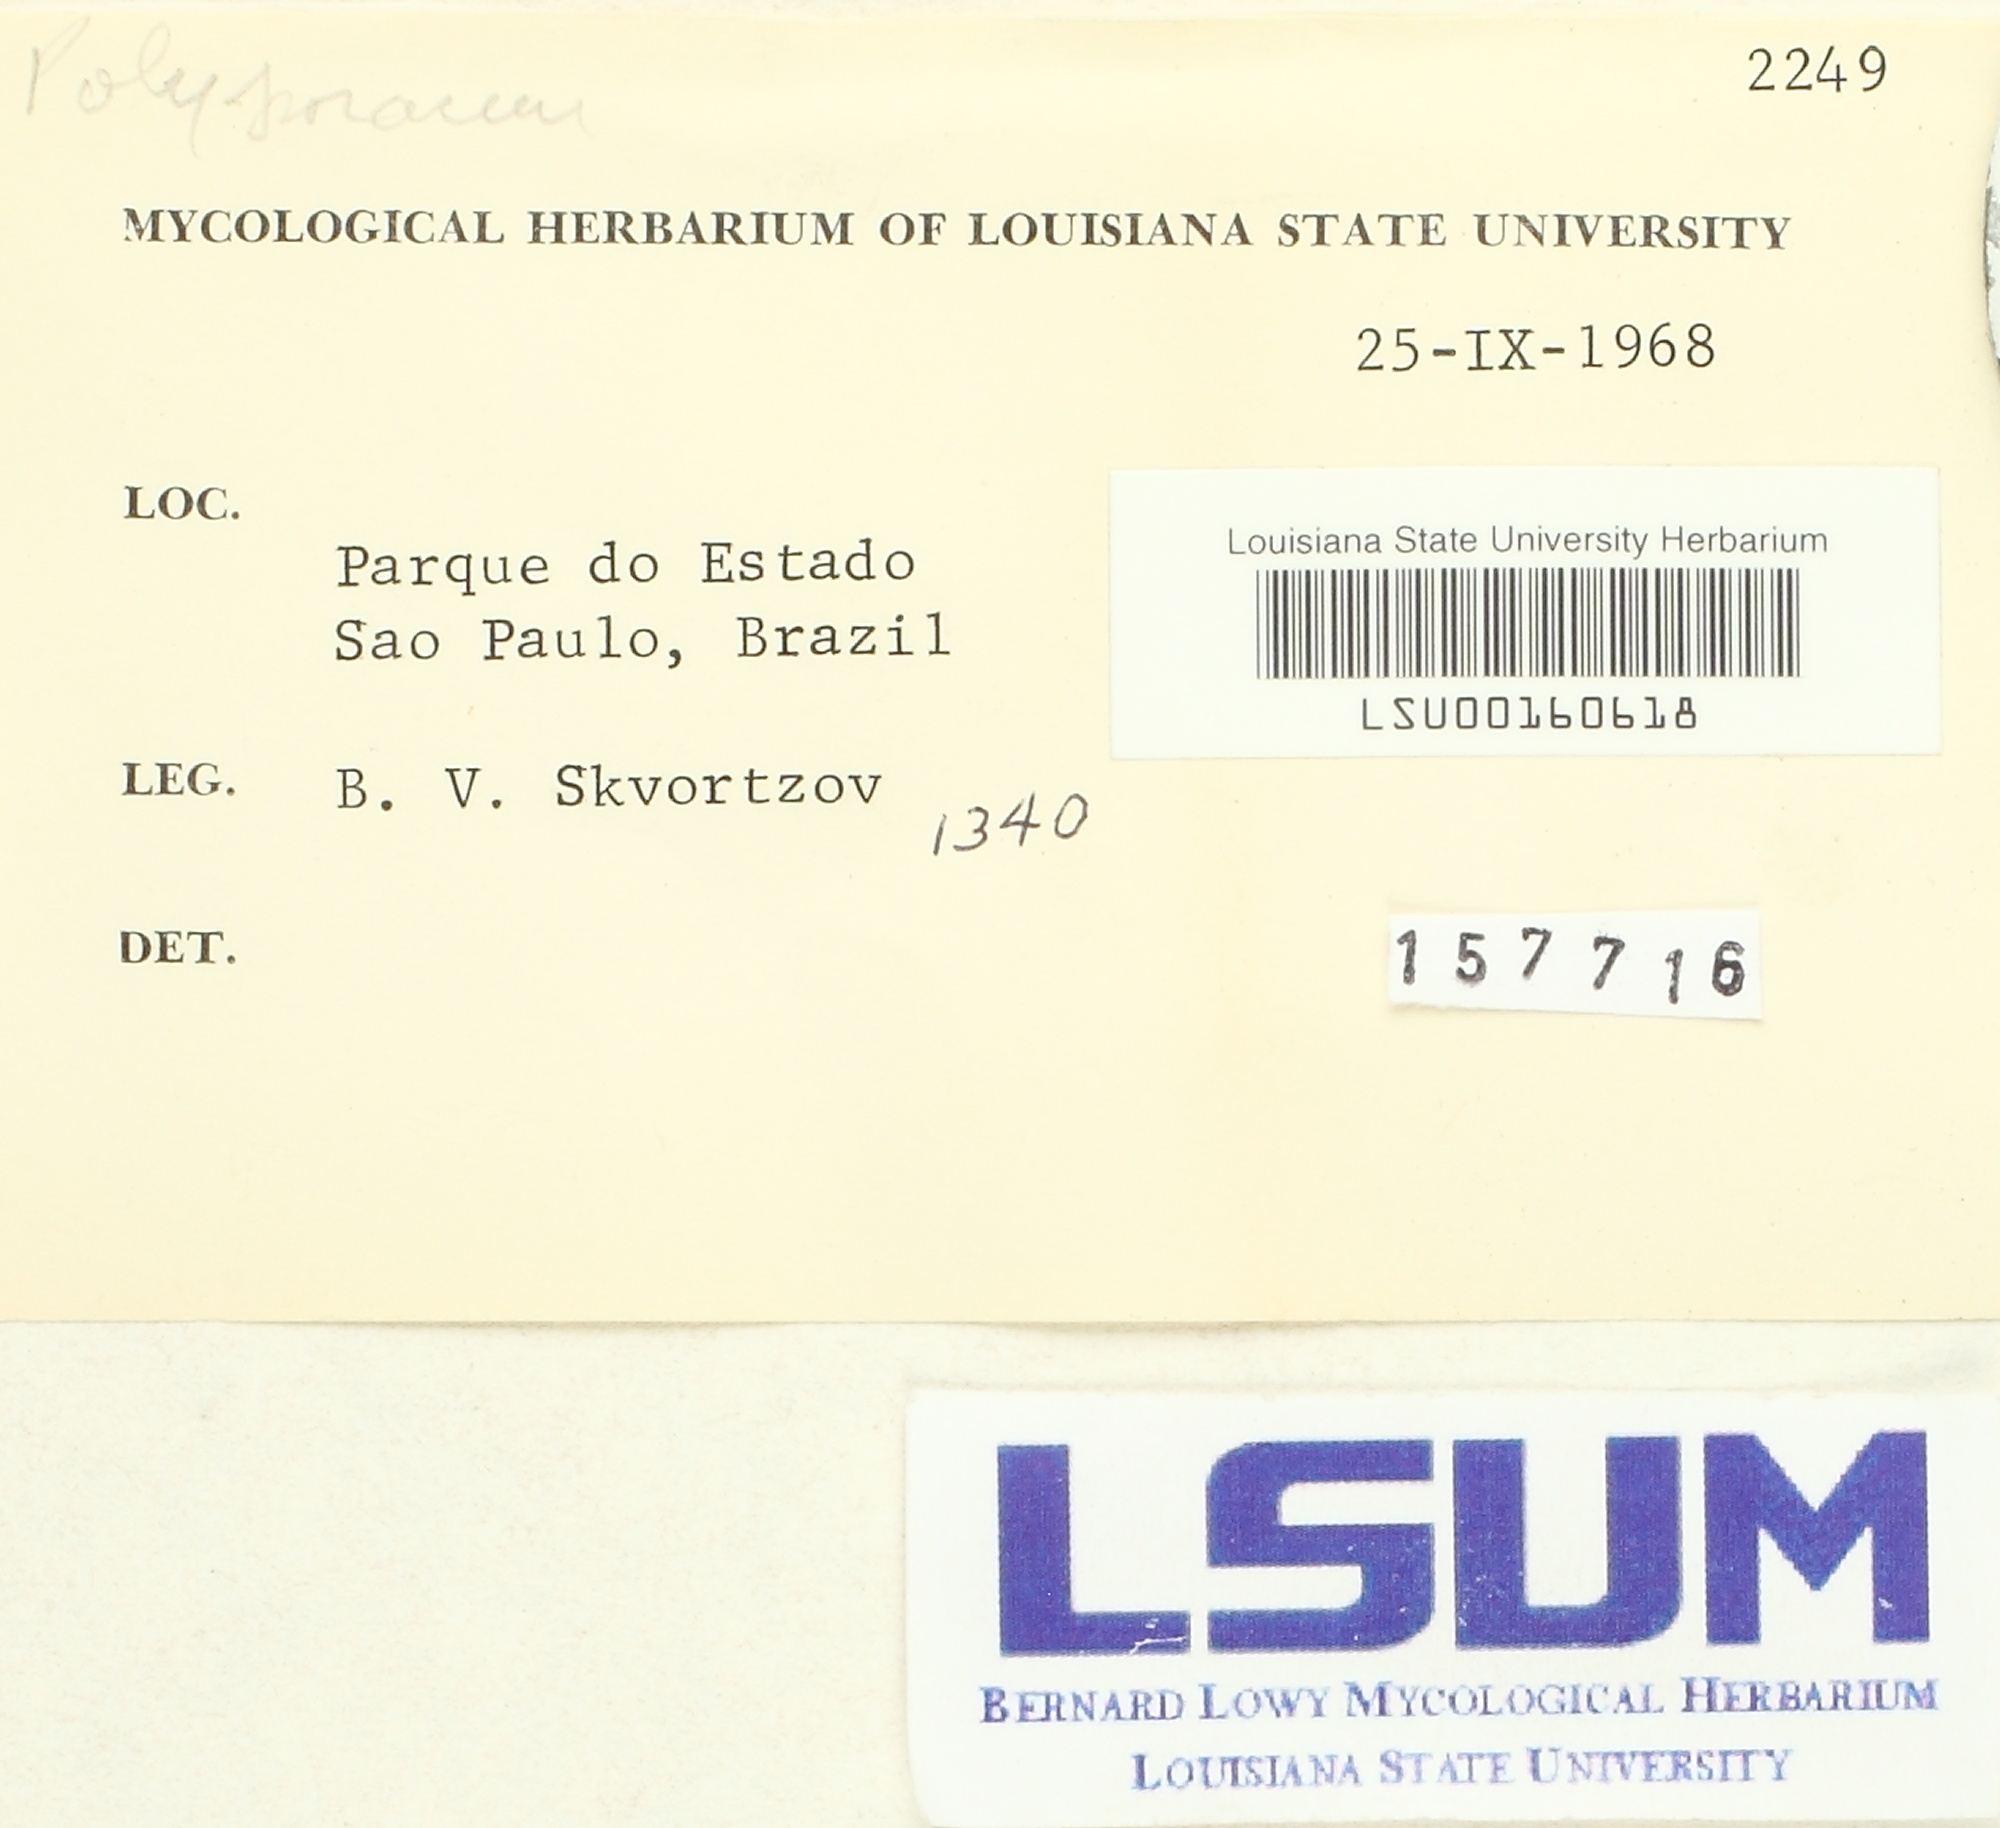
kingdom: Fungi
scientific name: Fungi
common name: Fungi
